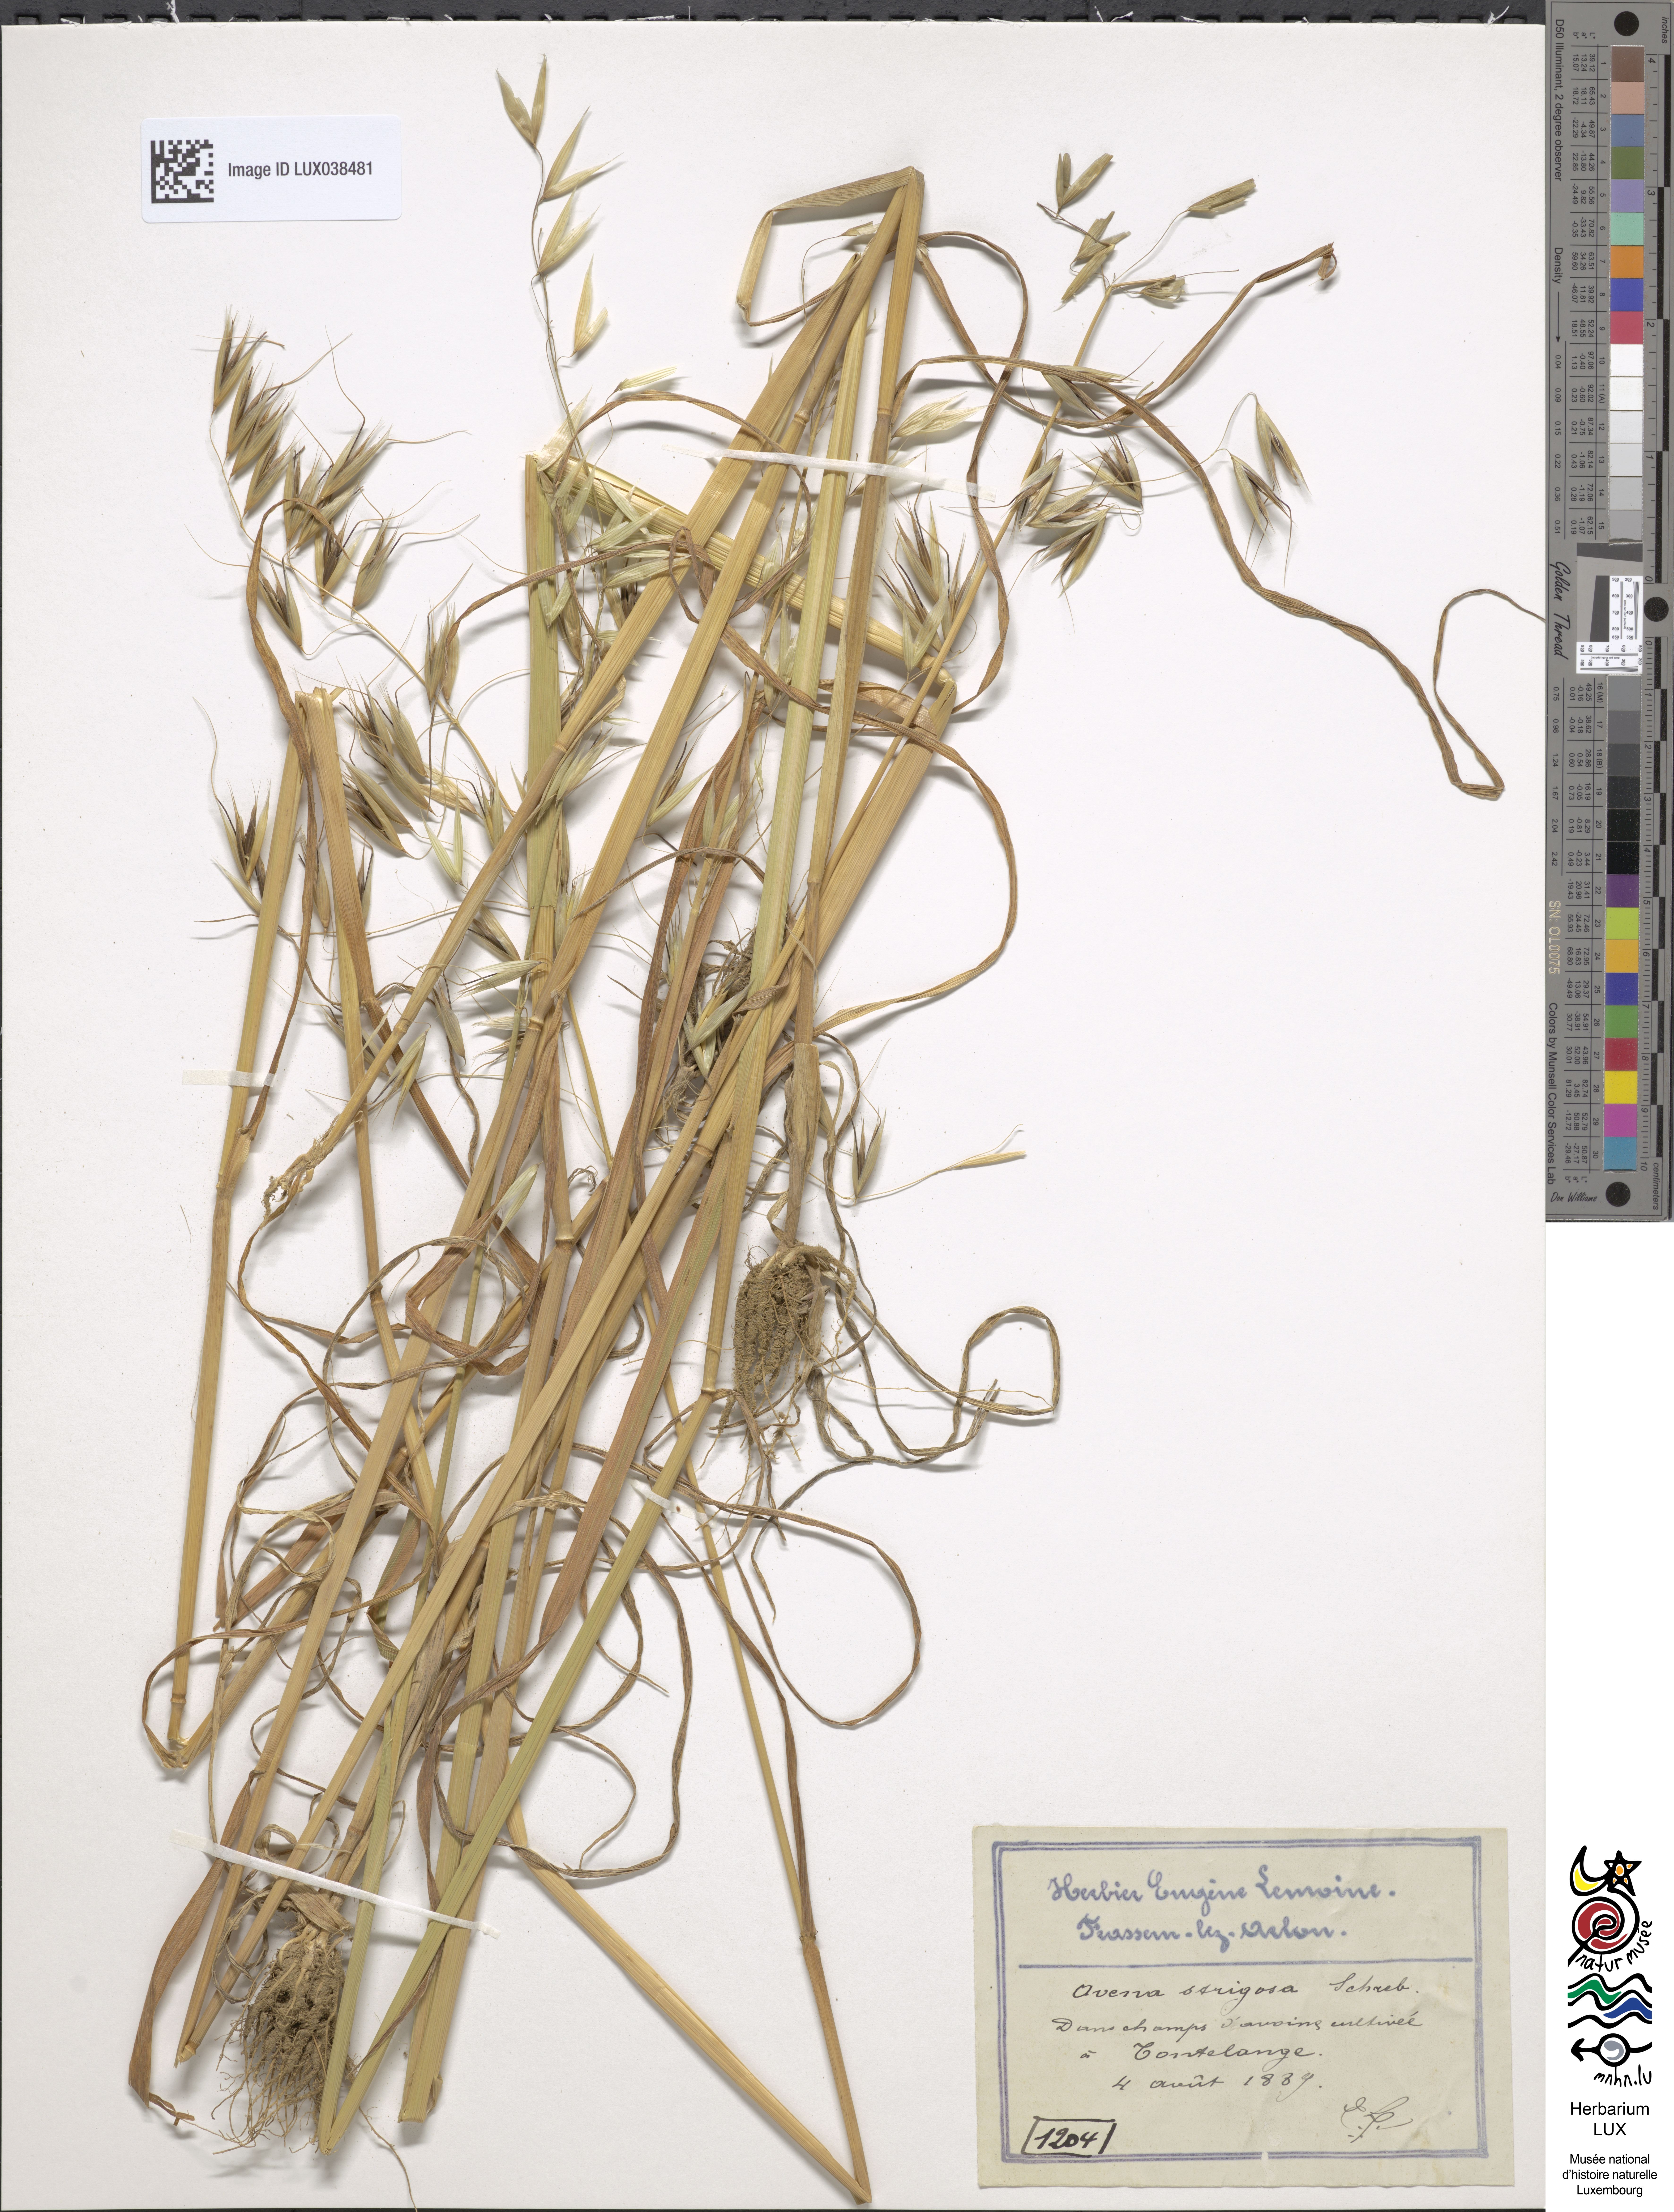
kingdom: Plantae
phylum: Tracheophyta
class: Liliopsida
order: Poales
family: Poaceae
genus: Avena
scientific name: Avena strigosa
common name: Bristle oat
